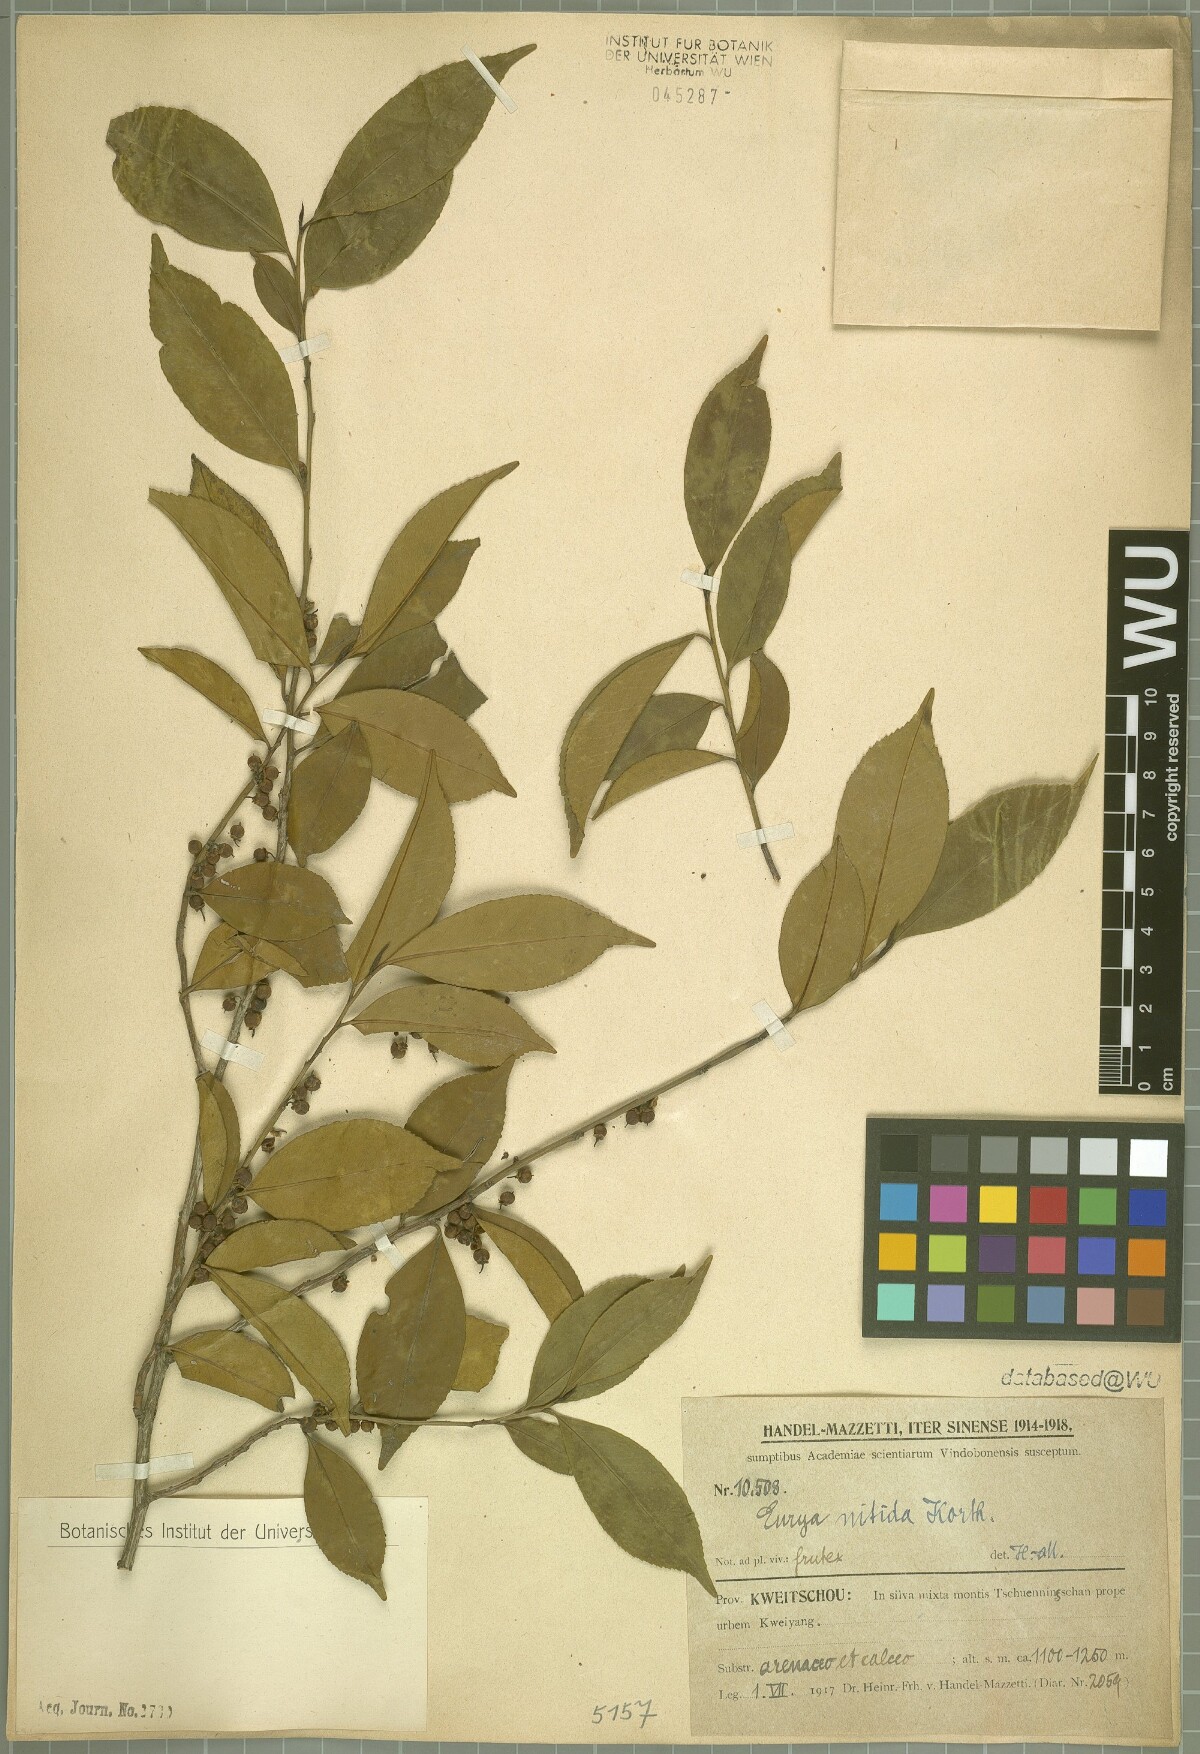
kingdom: Plantae
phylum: Tracheophyta
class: Magnoliopsida
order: Ericales
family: Pentaphylacaceae
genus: Eurya
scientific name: Eurya nitida
